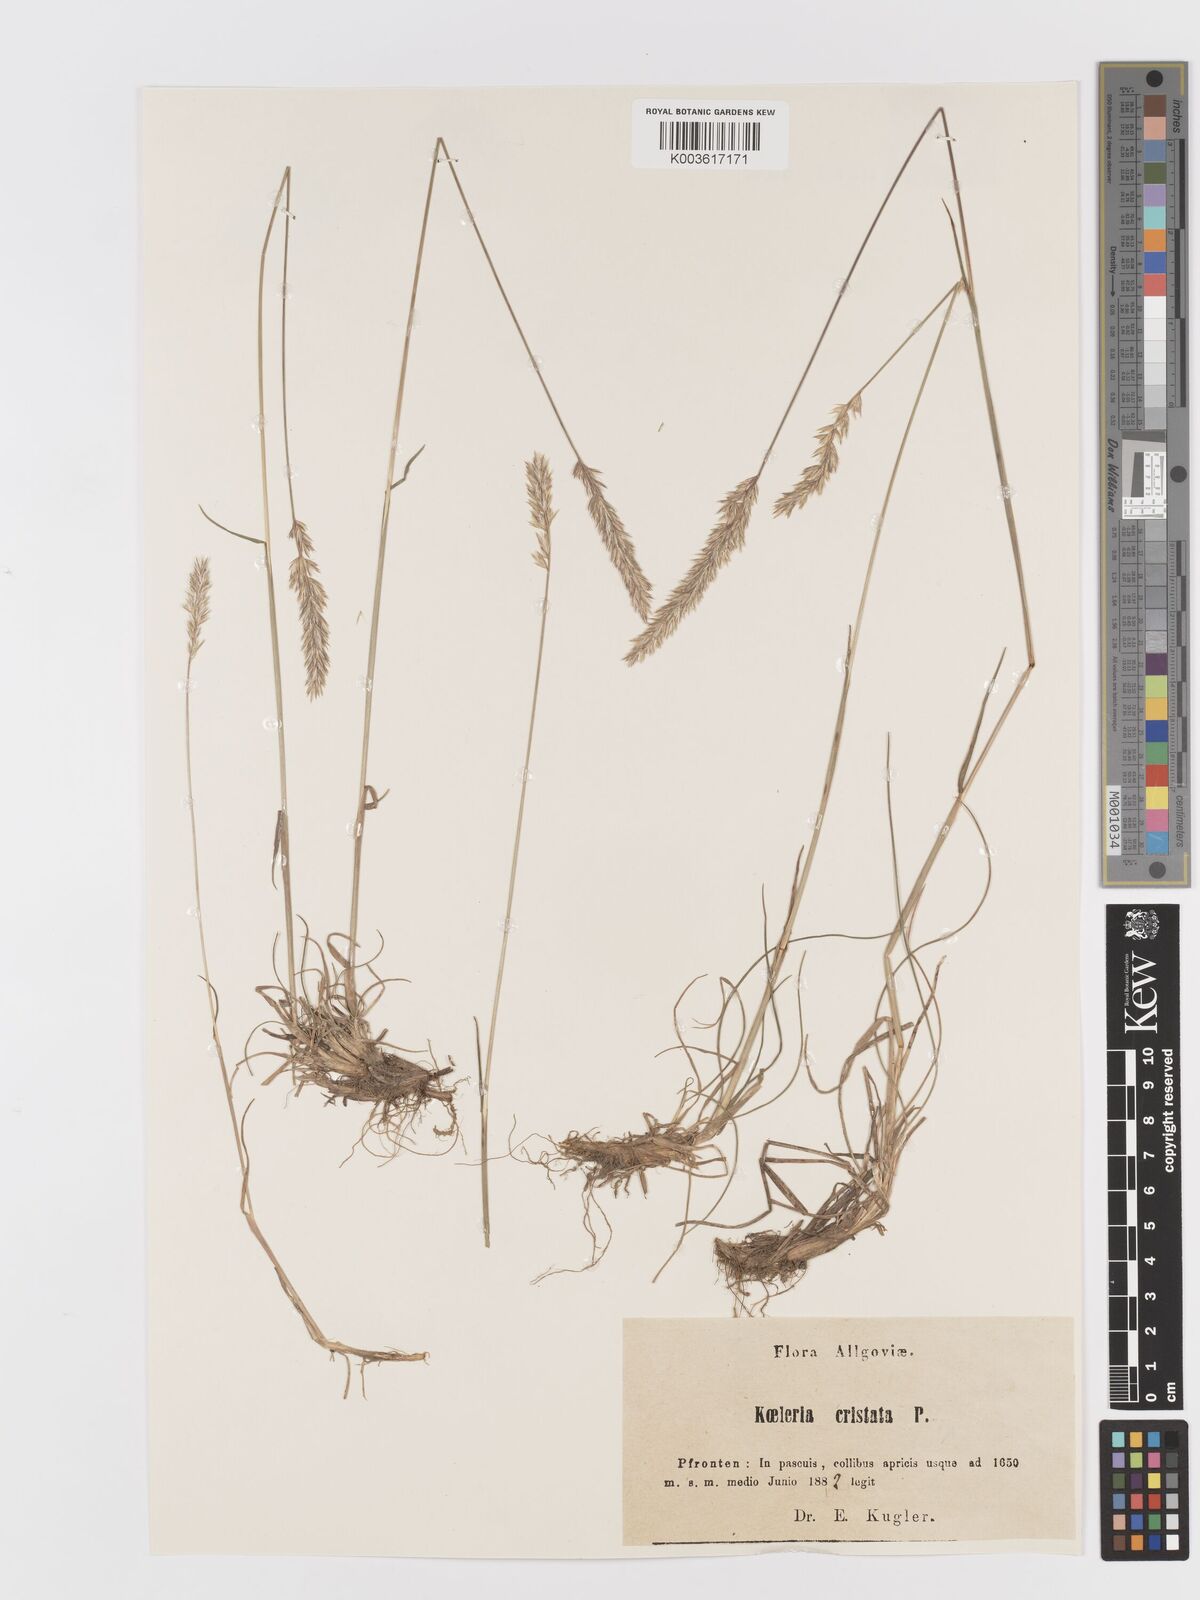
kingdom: Plantae
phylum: Tracheophyta
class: Liliopsida
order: Poales
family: Poaceae
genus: Koeleria
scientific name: Koeleria macrantha
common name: Crested hair-grass
